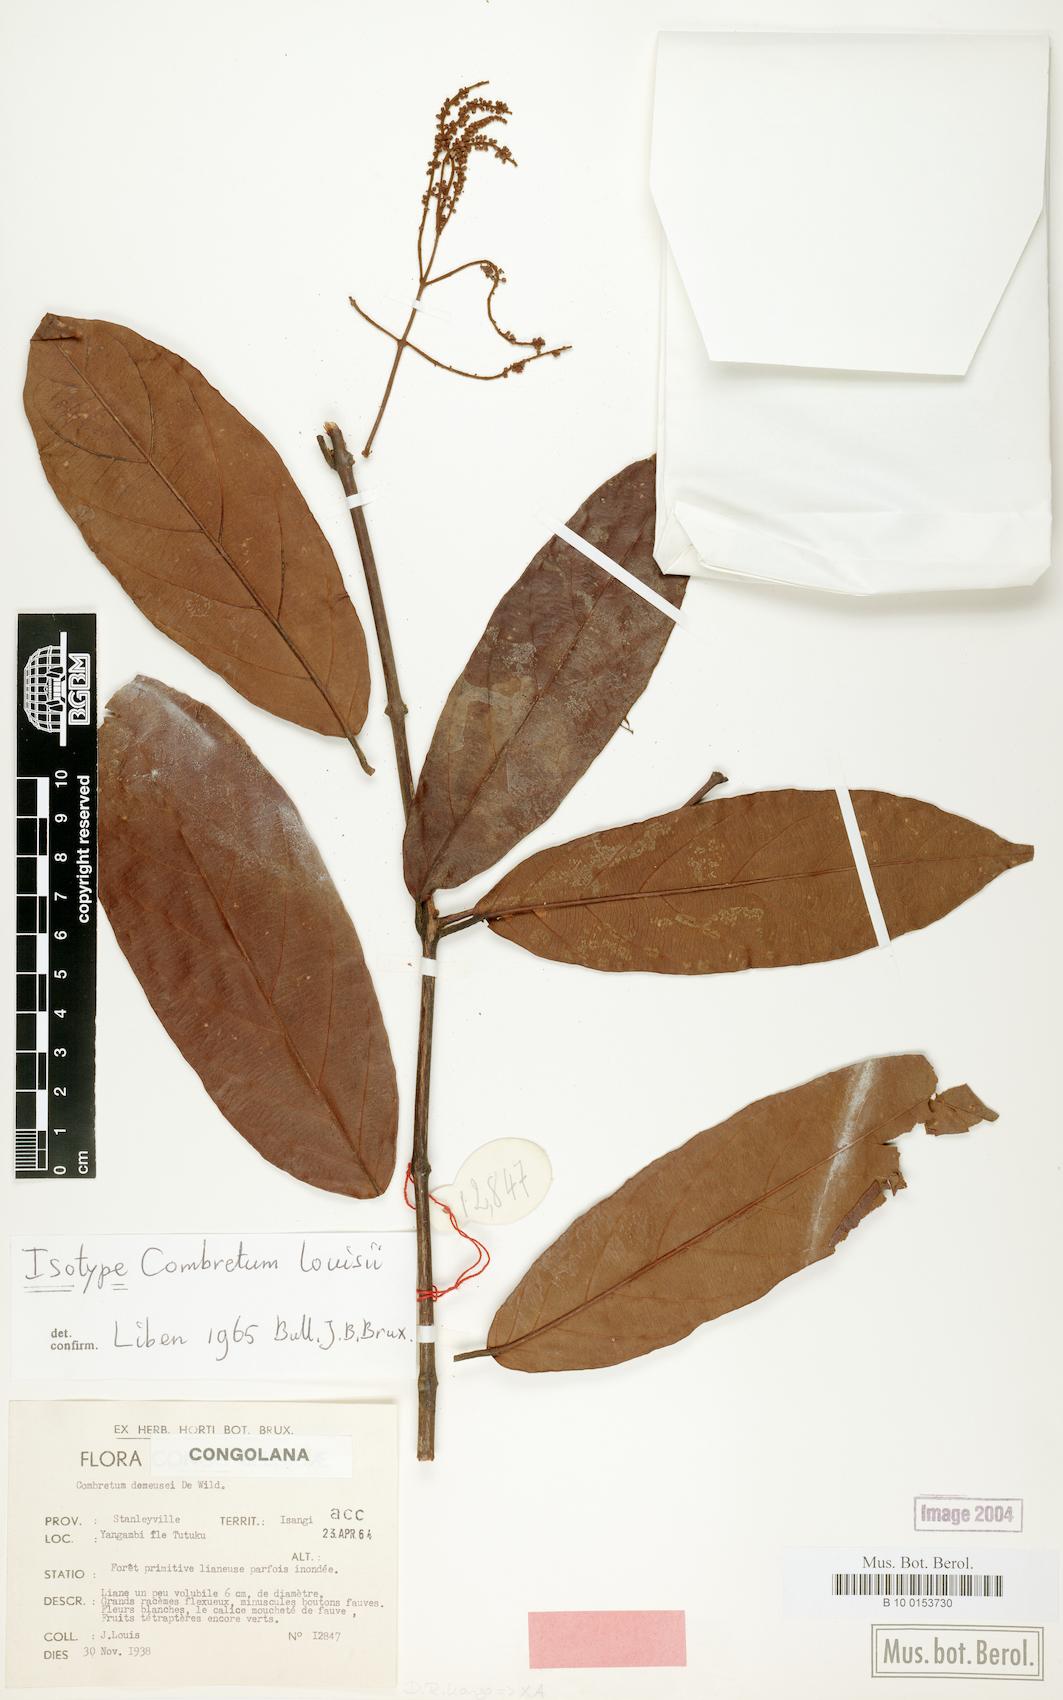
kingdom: Plantae
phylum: Tracheophyta
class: Magnoliopsida
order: Myrtales
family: Combretaceae
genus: Combretum
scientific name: Combretum louisii
